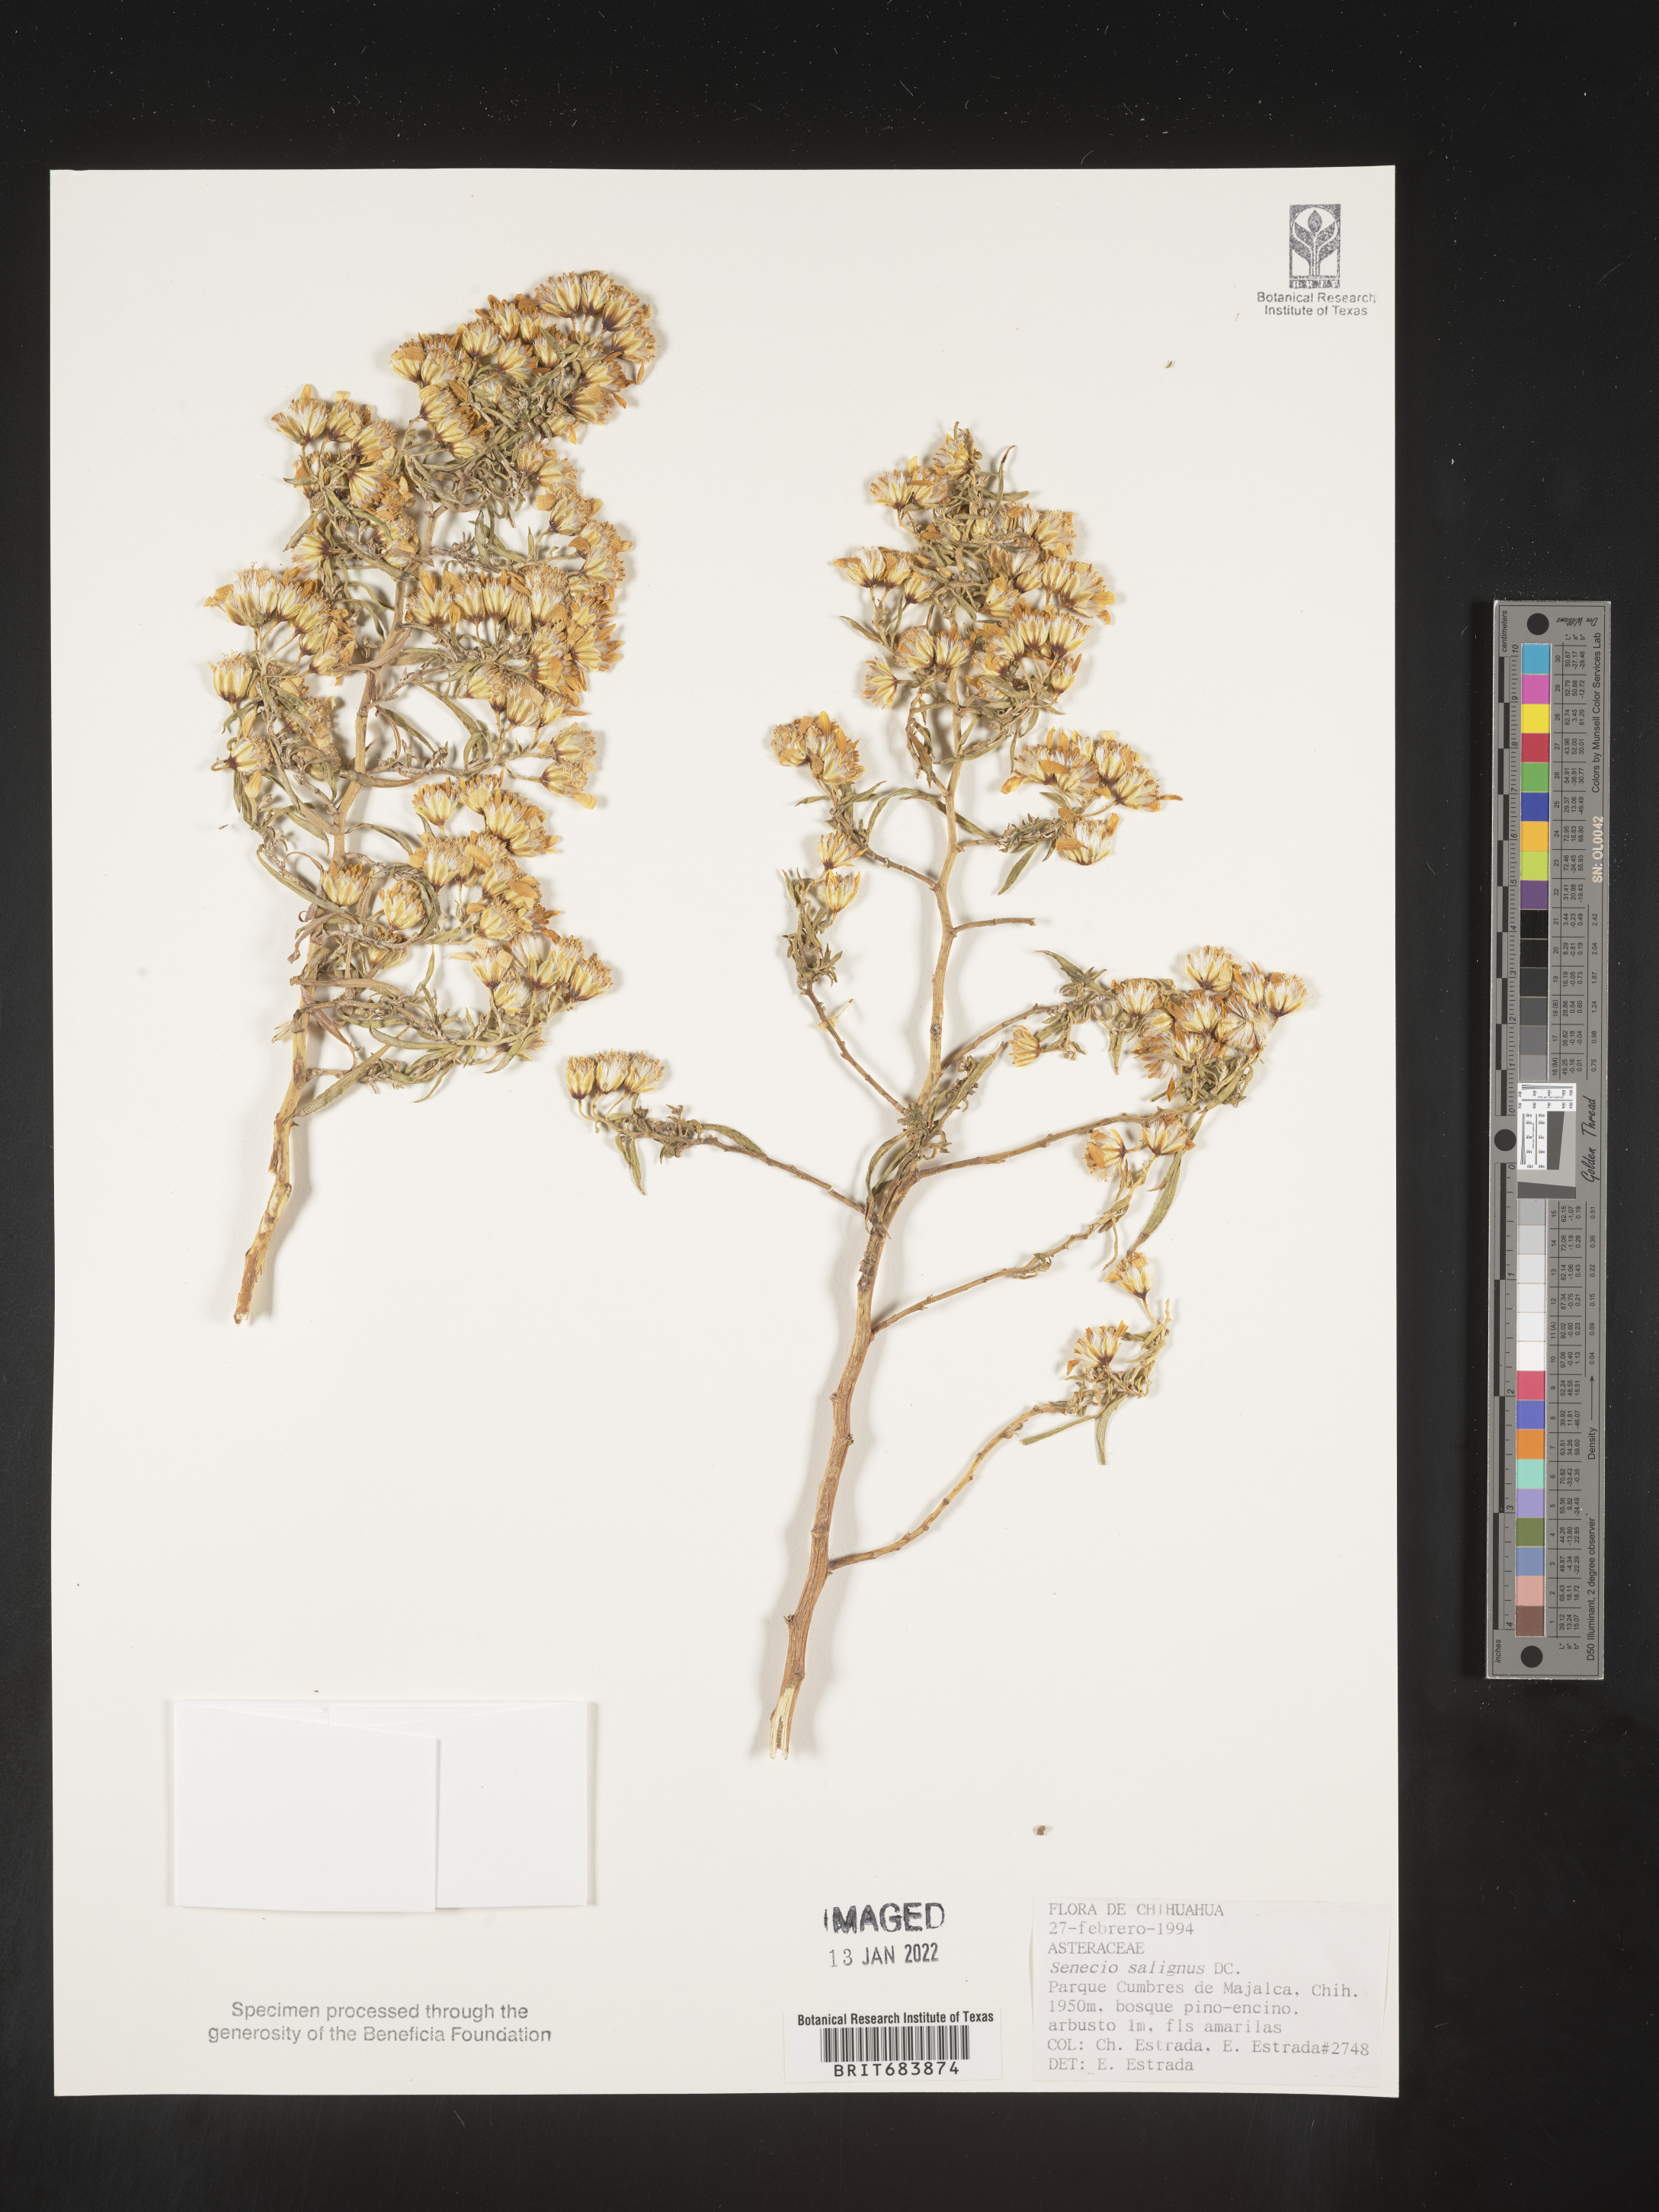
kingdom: Plantae
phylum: Tracheophyta
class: Magnoliopsida
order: Asterales
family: Asteraceae
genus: Barkleyanthus
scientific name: Barkleyanthus
